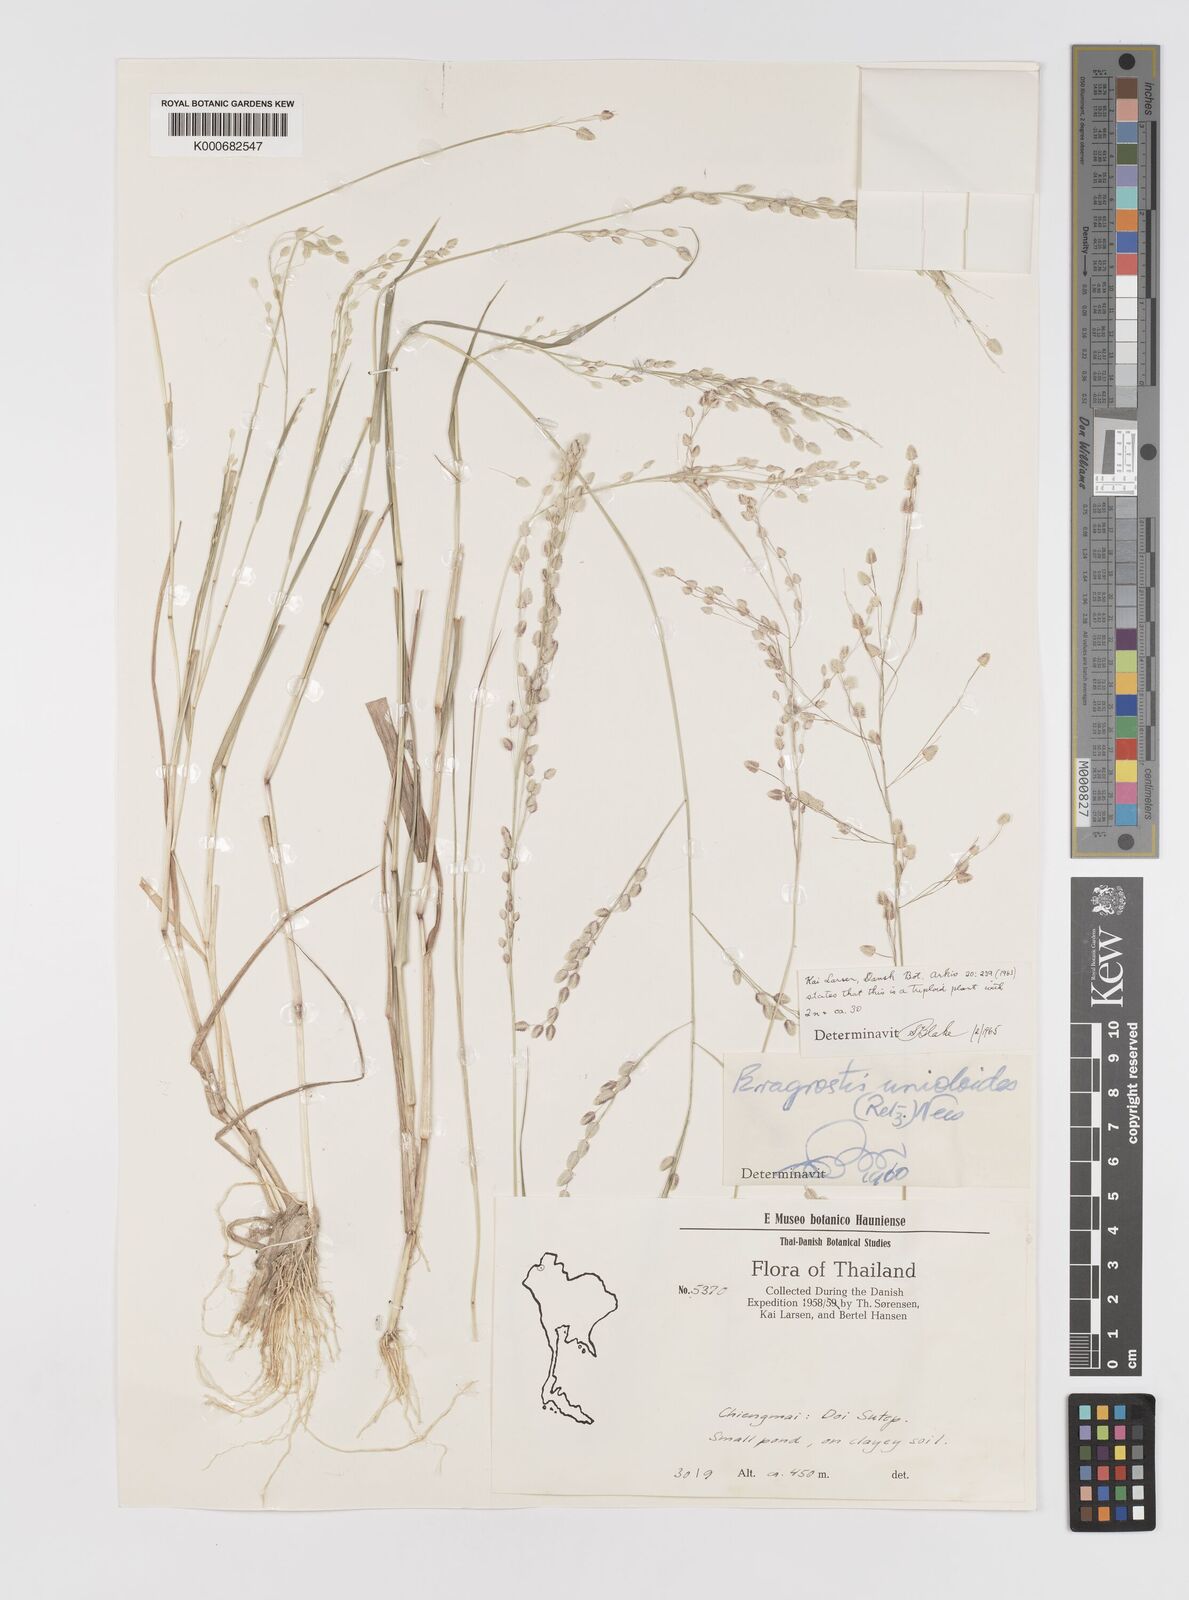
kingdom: Plantae
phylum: Tracheophyta
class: Liliopsida
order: Poales
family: Poaceae
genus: Eragrostis
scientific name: Eragrostis unioloides
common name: Chinese lovegrass
